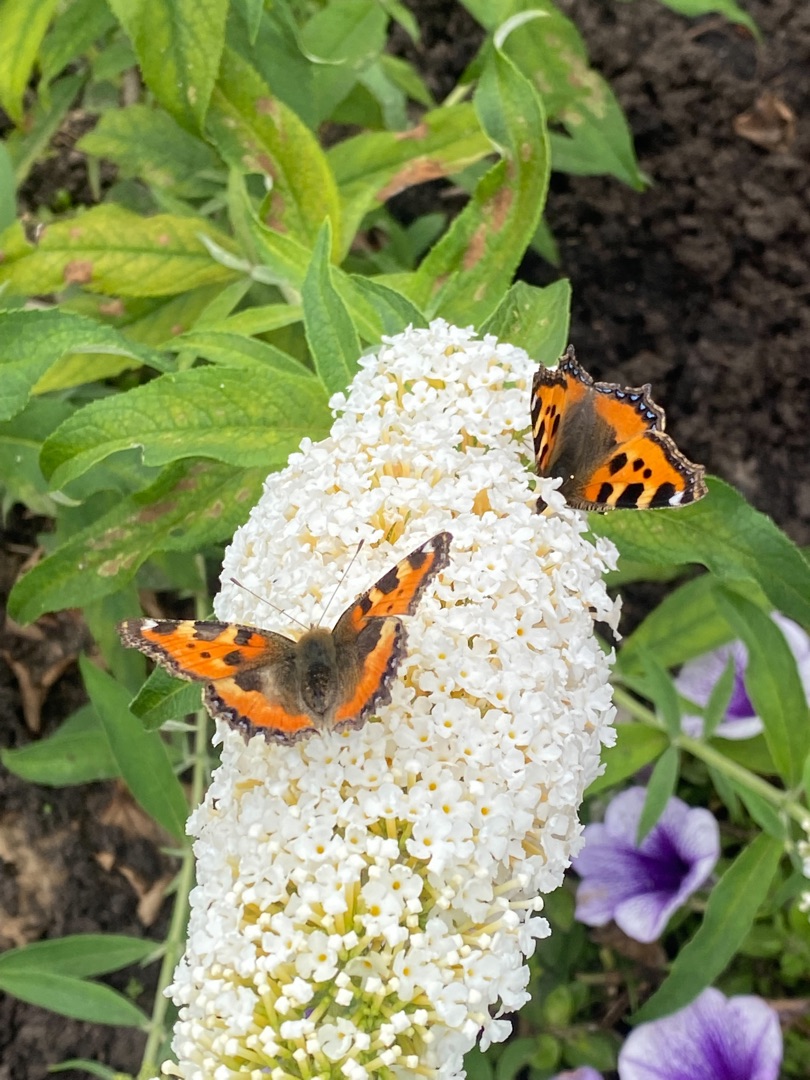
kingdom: Animalia
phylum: Arthropoda
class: Insecta
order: Lepidoptera
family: Nymphalidae
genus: Aglais
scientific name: Aglais urticae
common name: Nældens takvinge
